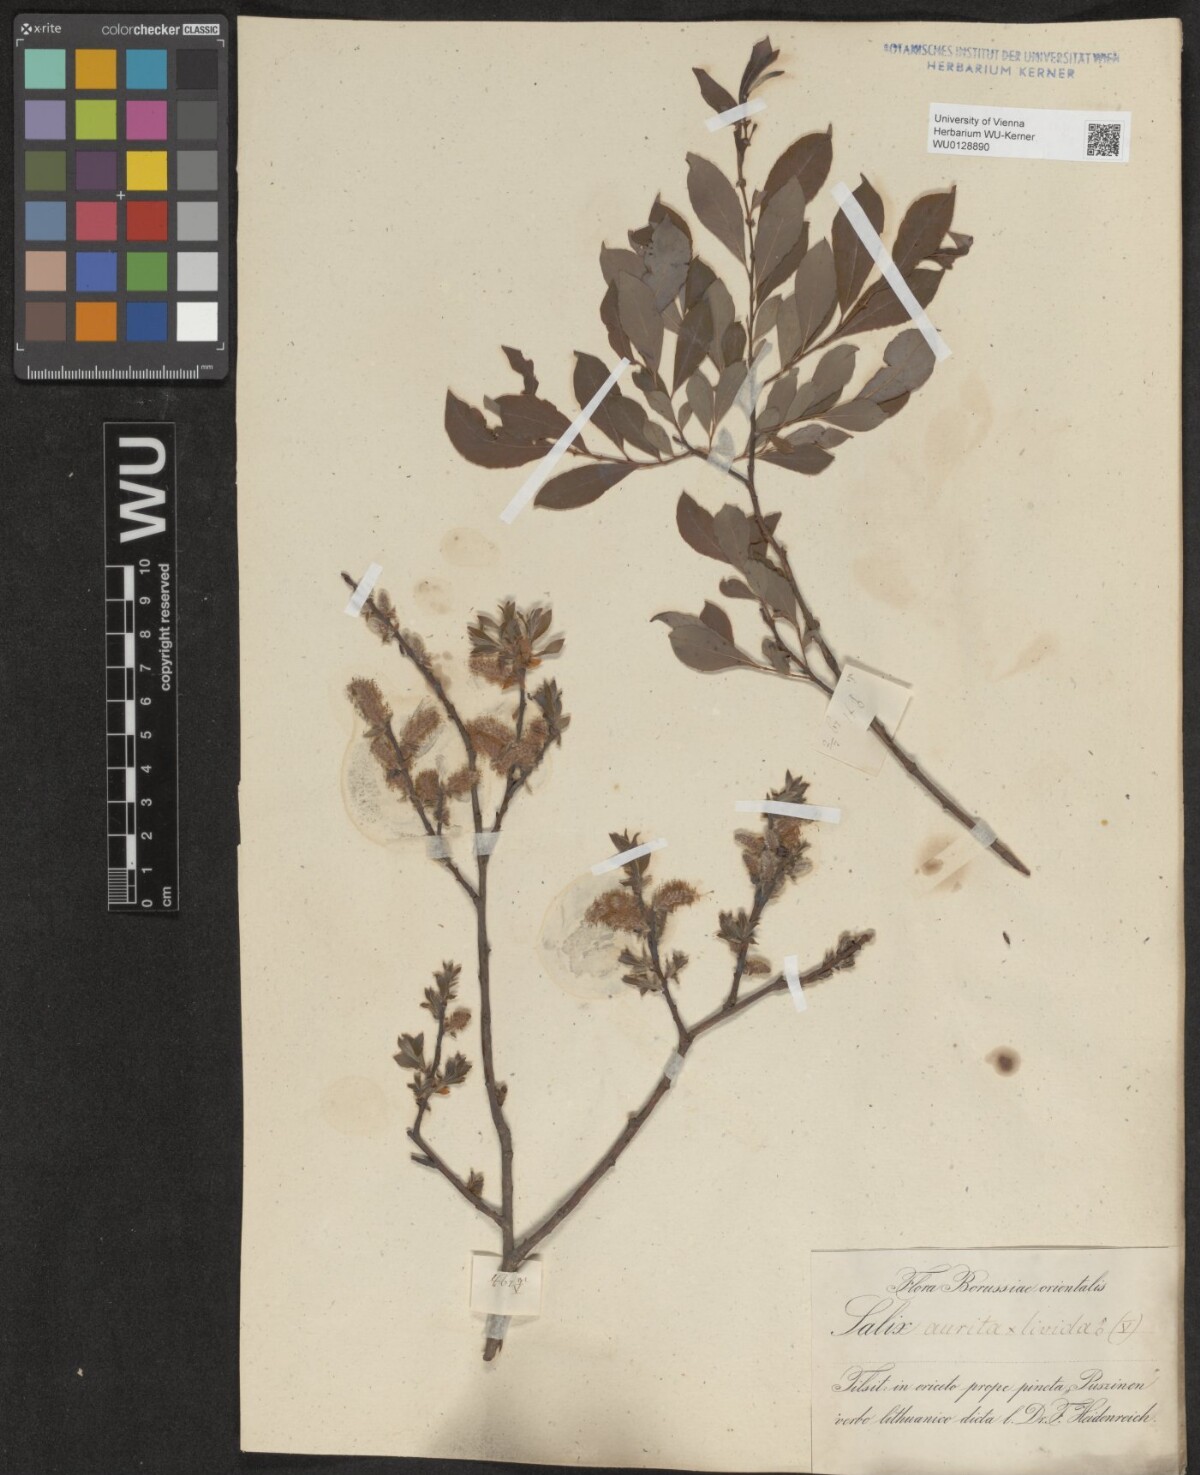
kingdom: Plantae
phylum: Tracheophyta
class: Magnoliopsida
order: Malpighiales
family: Salicaceae
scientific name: Salicaceae
